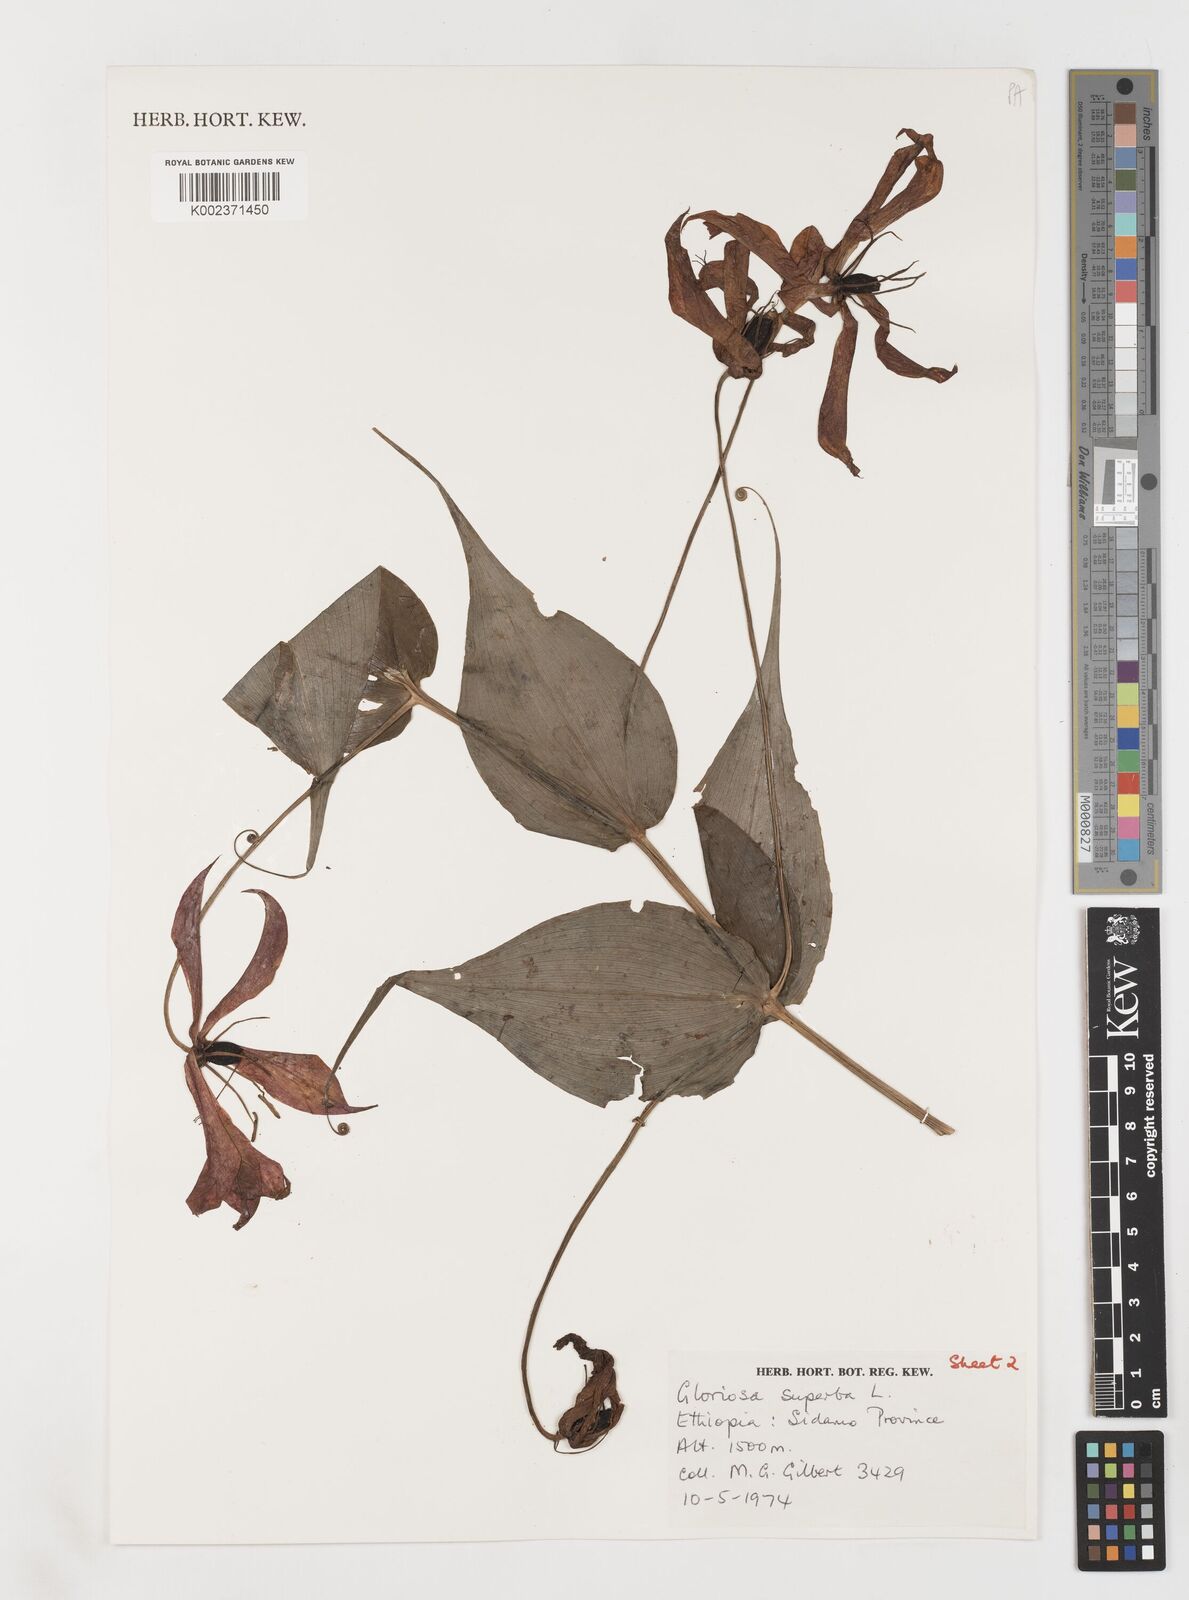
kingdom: Plantae
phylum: Tracheophyta
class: Liliopsida
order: Liliales
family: Colchicaceae
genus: Gloriosa
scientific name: Gloriosa simplex
